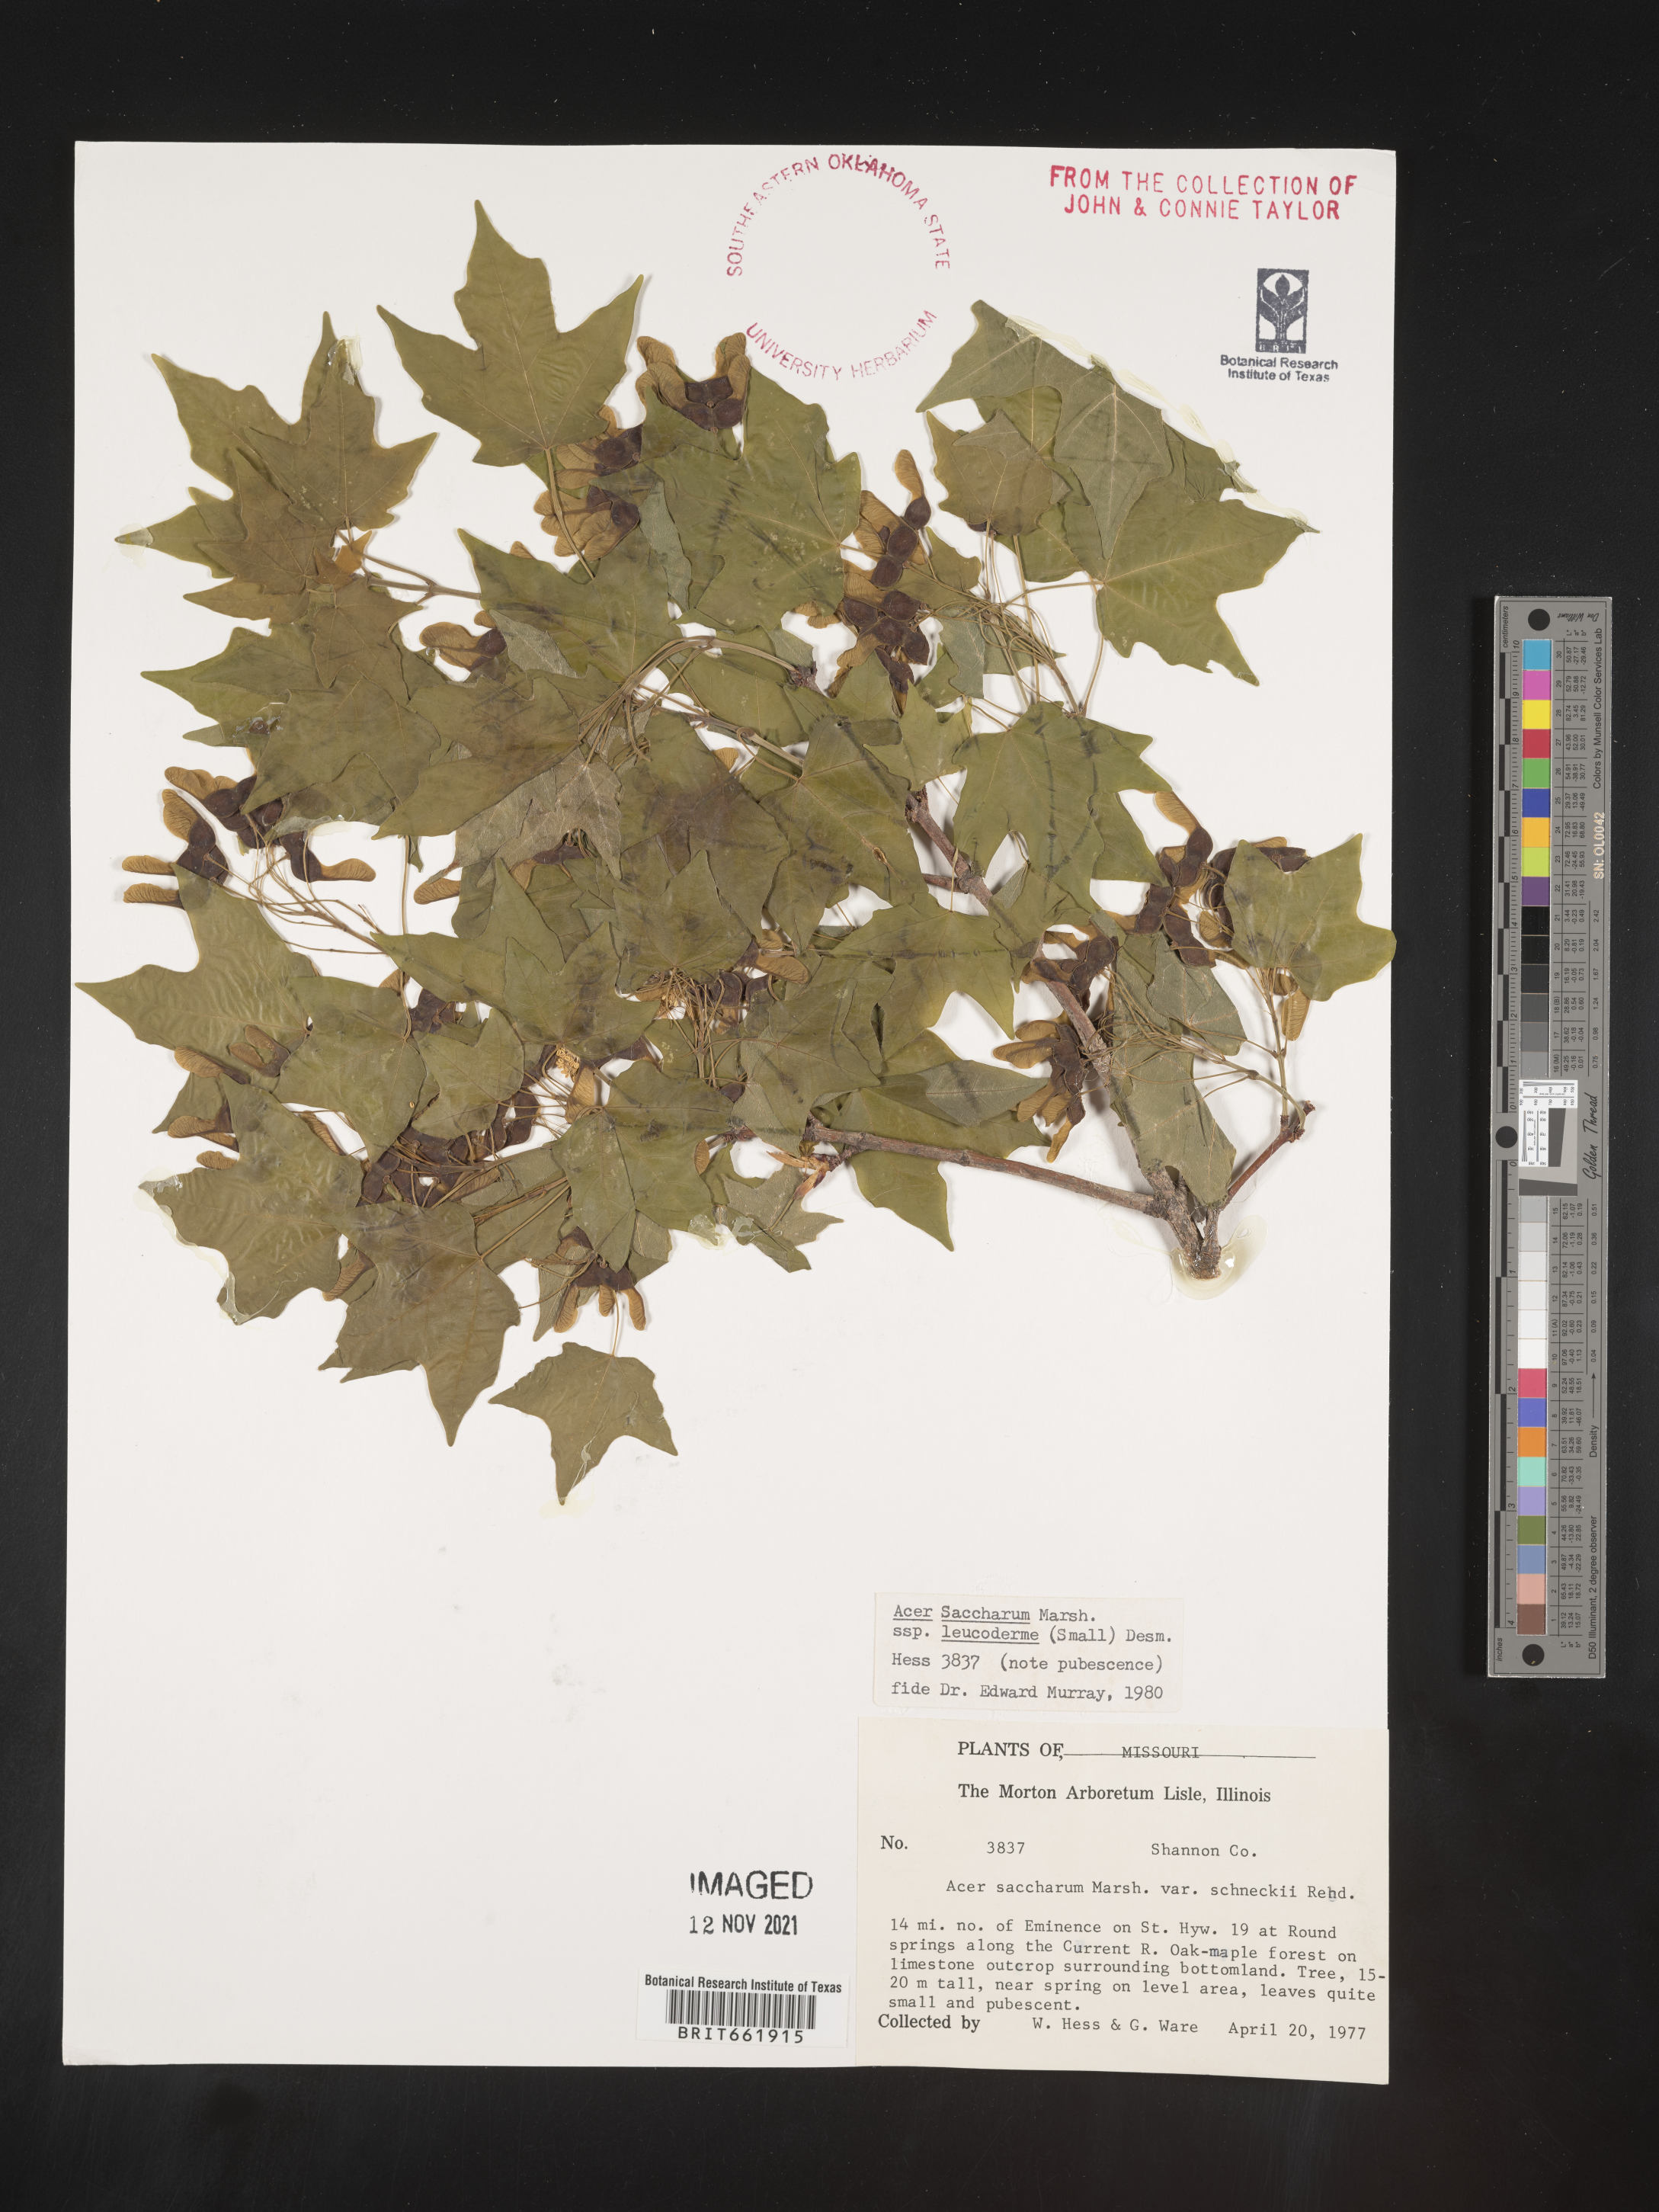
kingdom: Plantae
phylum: Tracheophyta
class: Magnoliopsida
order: Sapindales
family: Sapindaceae
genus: Acer
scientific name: Acer leucoderme
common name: Chalk maple
